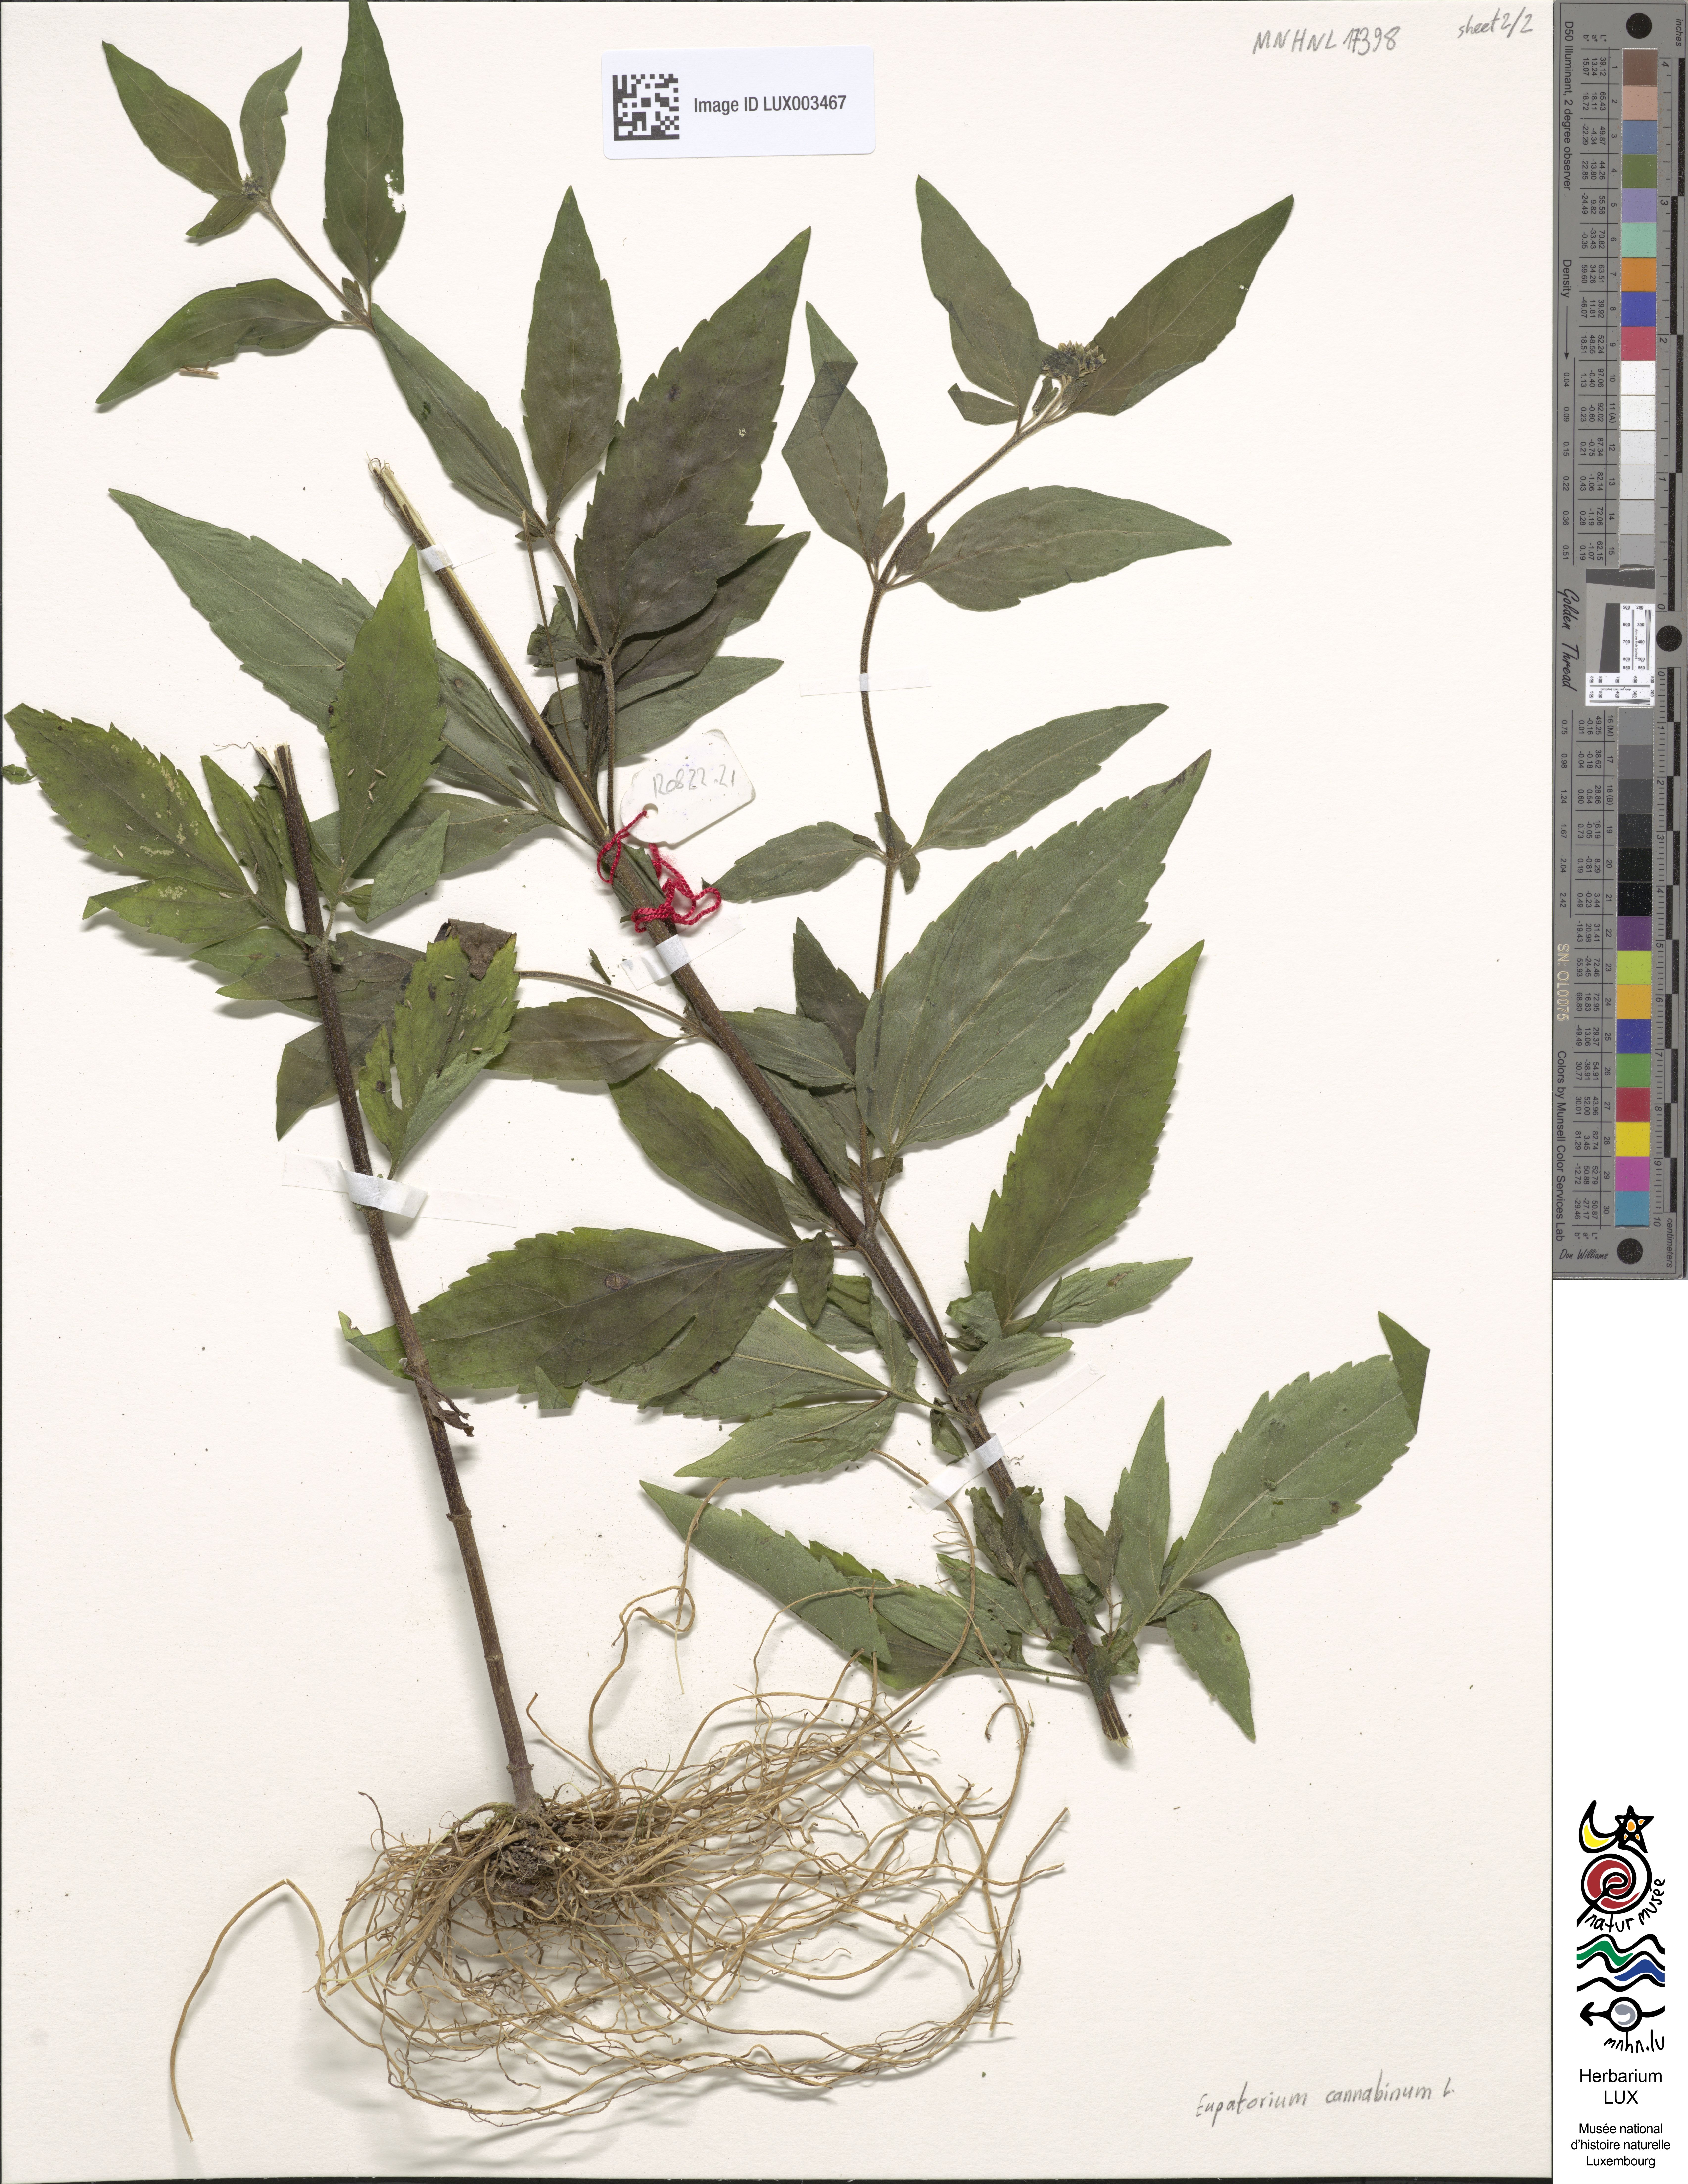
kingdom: Plantae
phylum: Tracheophyta
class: Magnoliopsida
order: Asterales
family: Asteraceae
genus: Eupatorium
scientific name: Eupatorium cannabinum
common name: Hemp-agrimony
